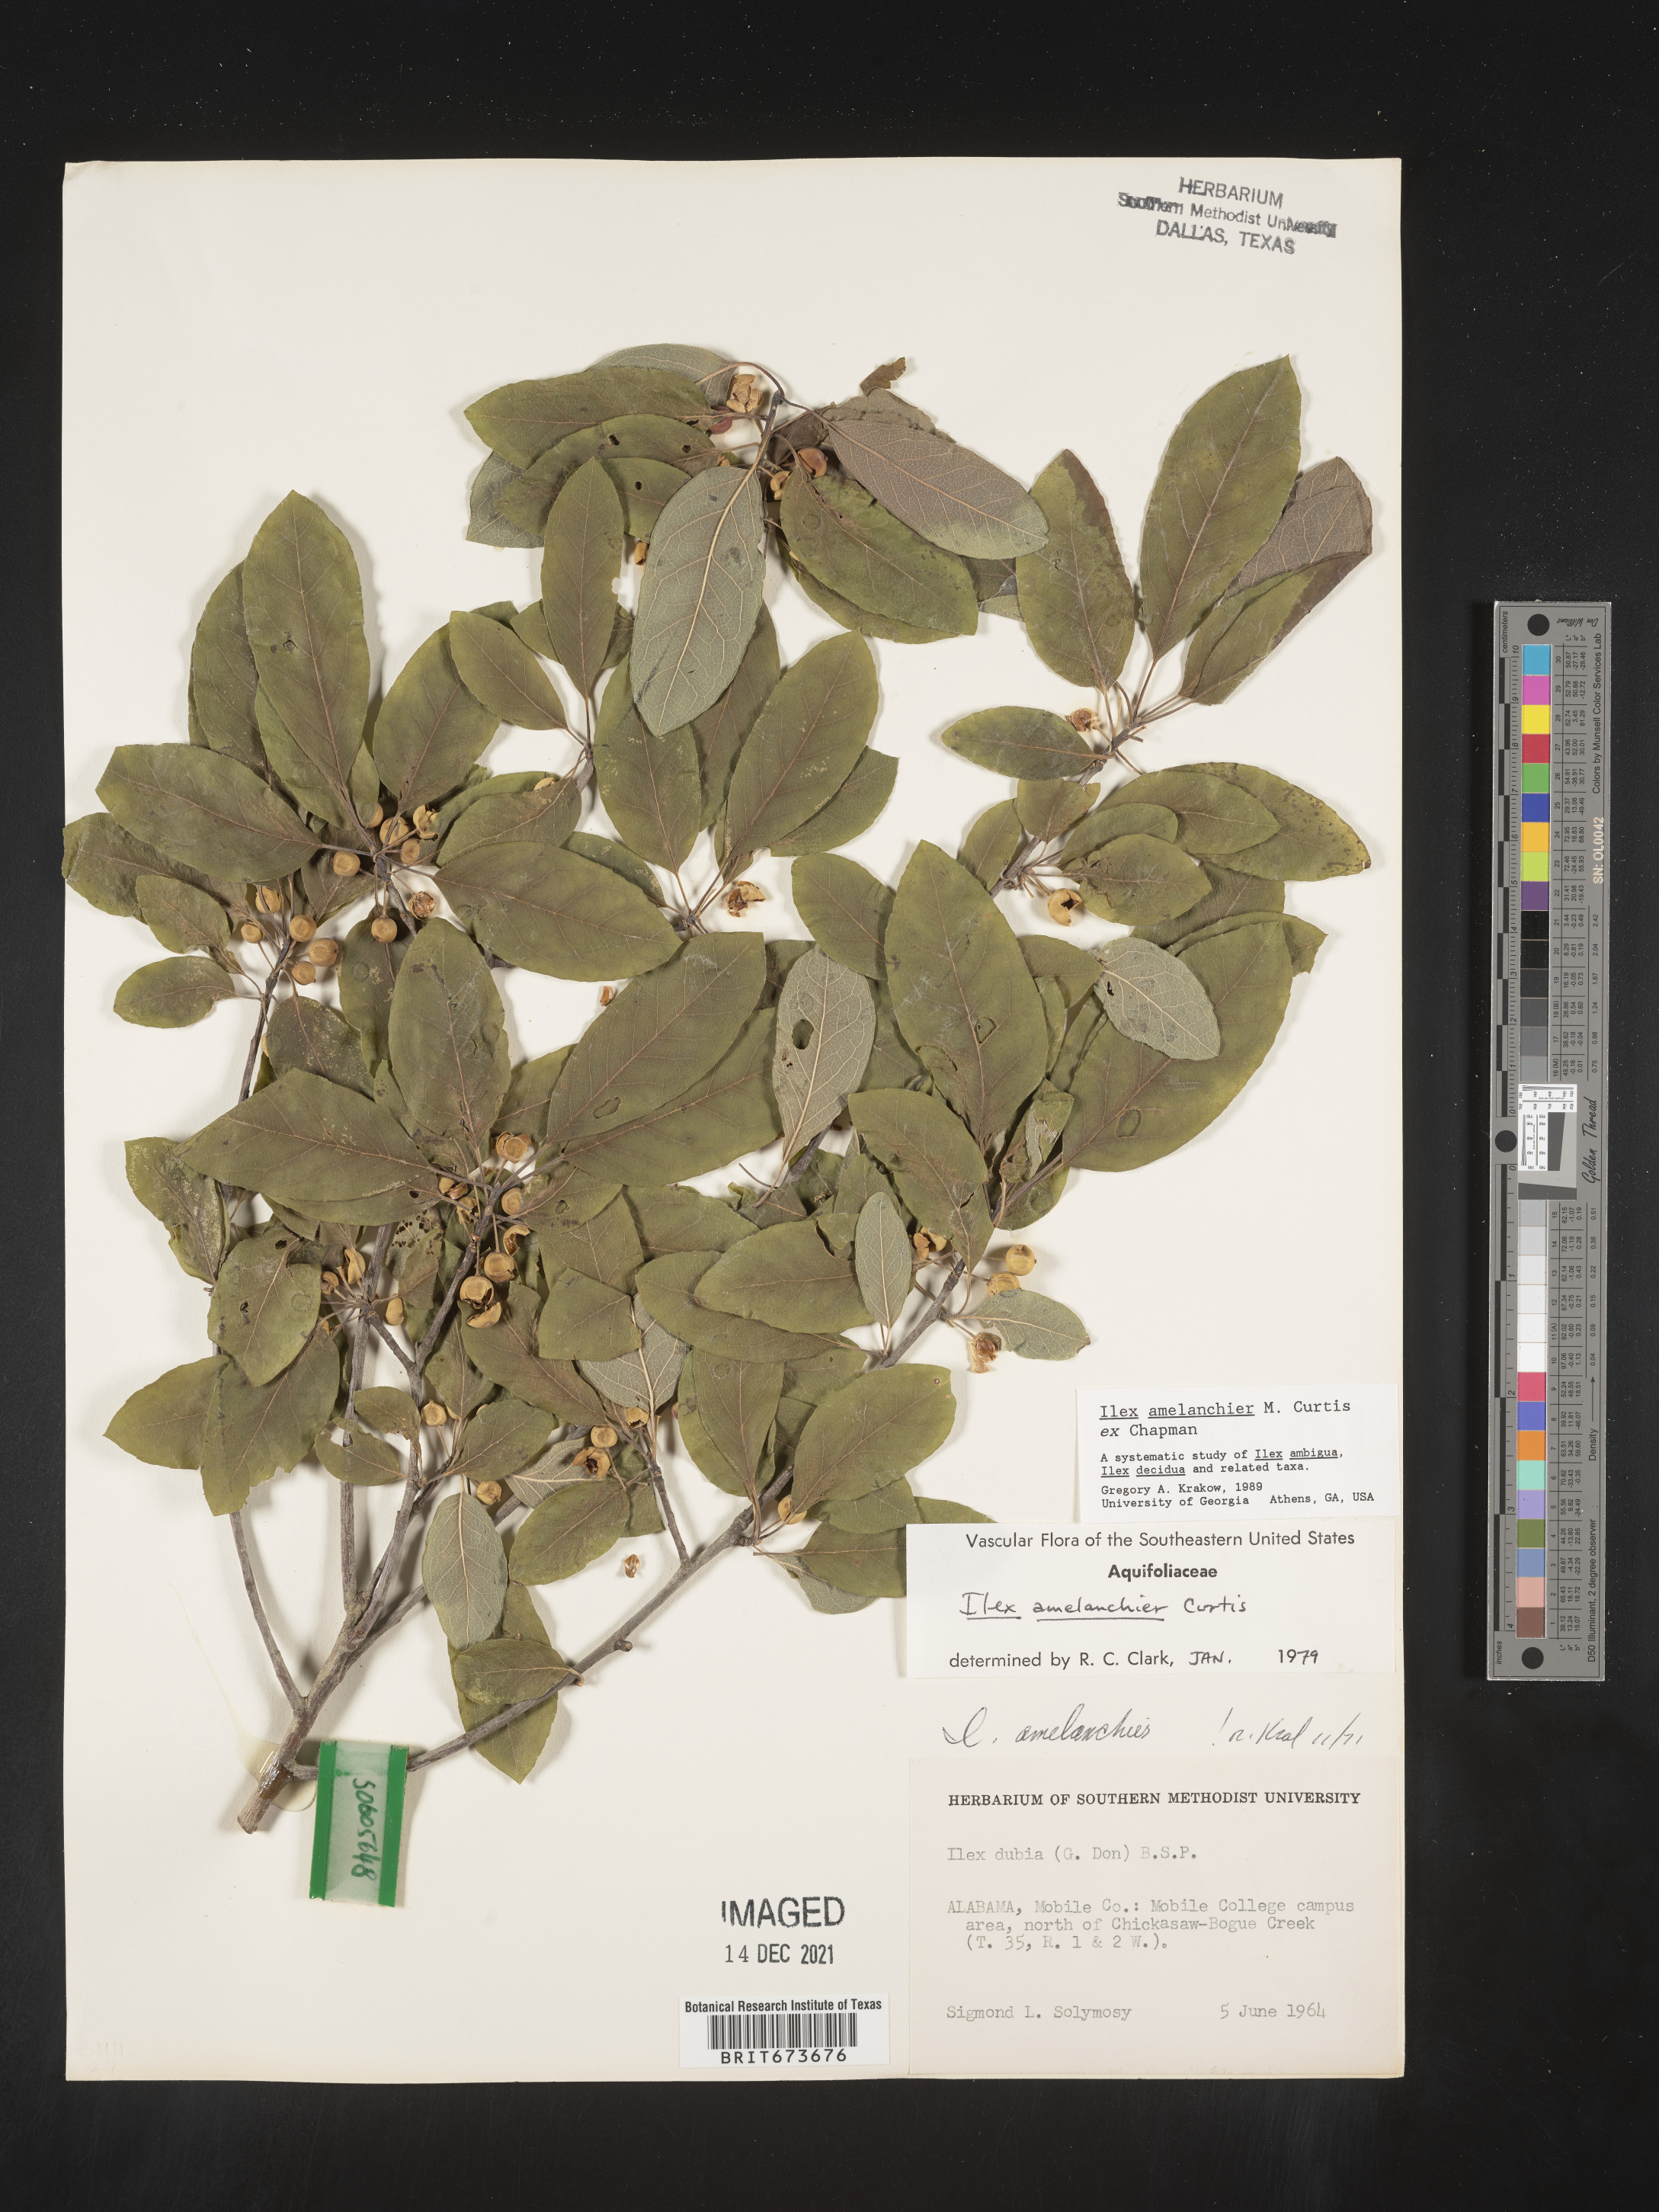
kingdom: Plantae
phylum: Tracheophyta
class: Magnoliopsida
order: Aquifoliales
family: Aquifoliaceae
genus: Ilex
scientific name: Ilex amelanchier
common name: Sarvis holly
